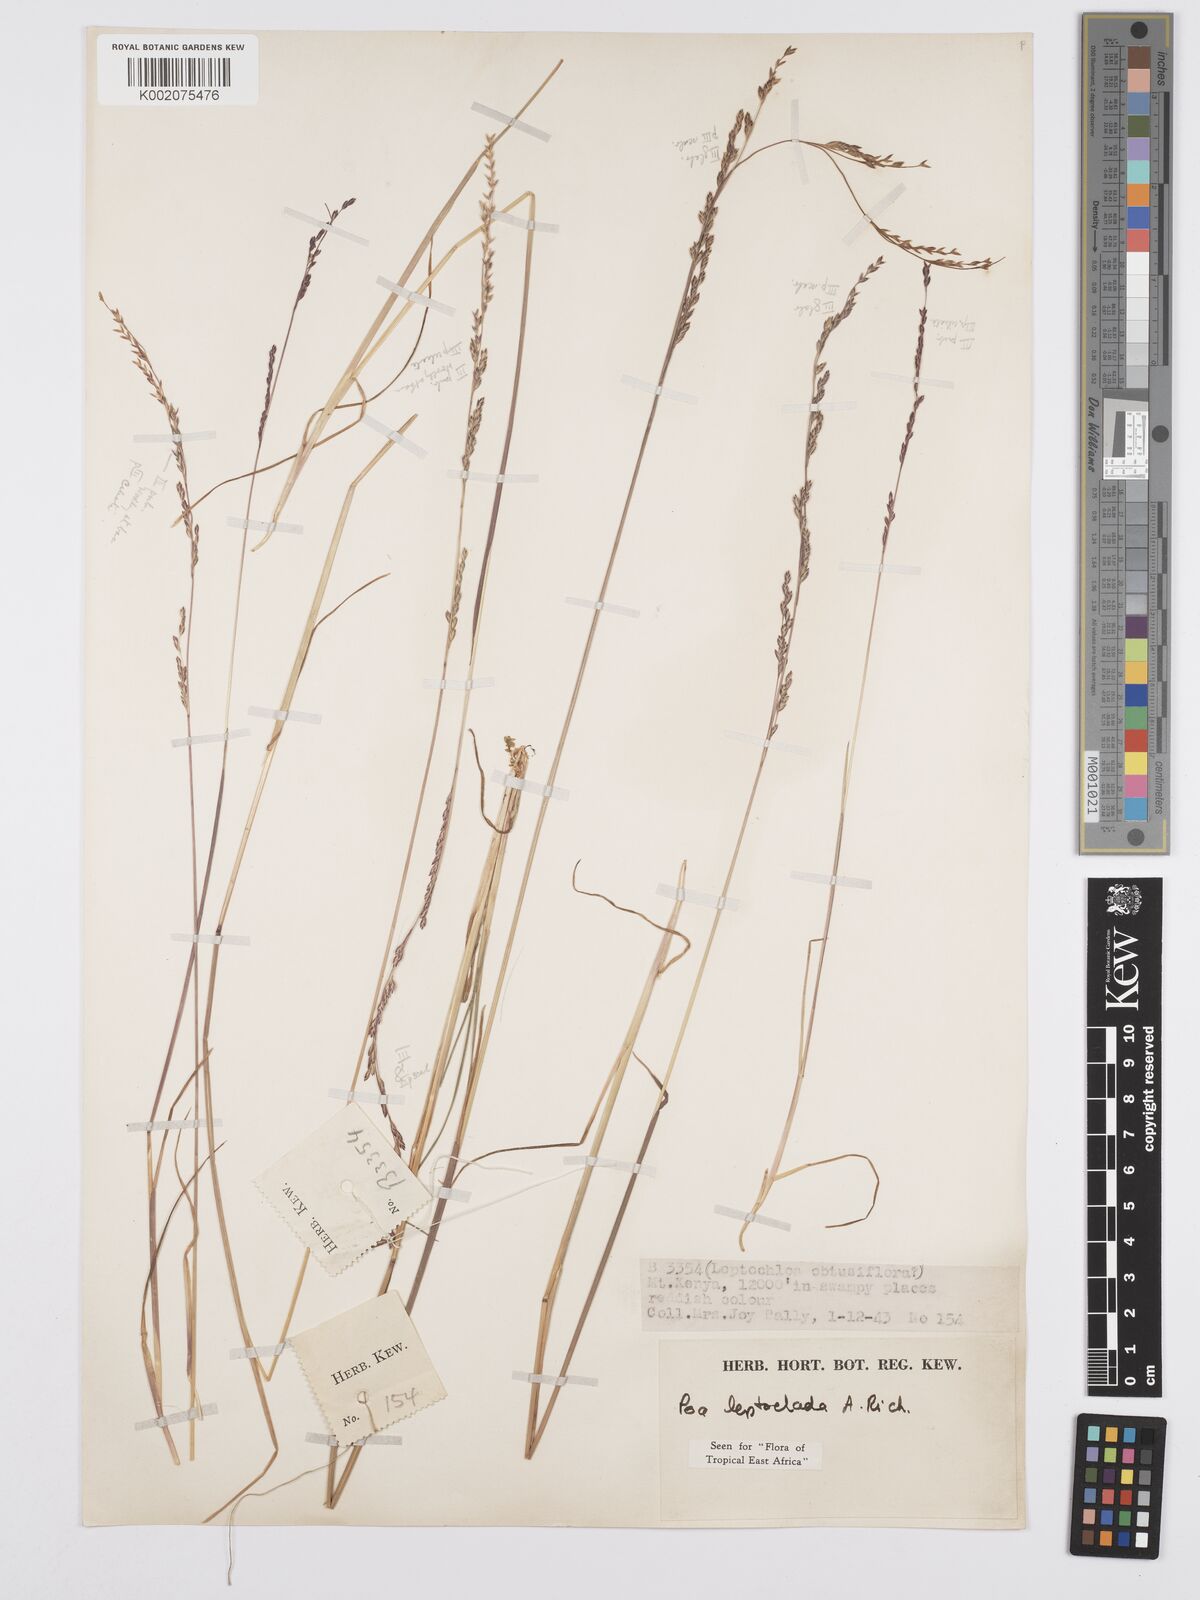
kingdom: Plantae
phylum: Tracheophyta
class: Liliopsida
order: Poales
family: Poaceae
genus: Poa
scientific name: Poa
